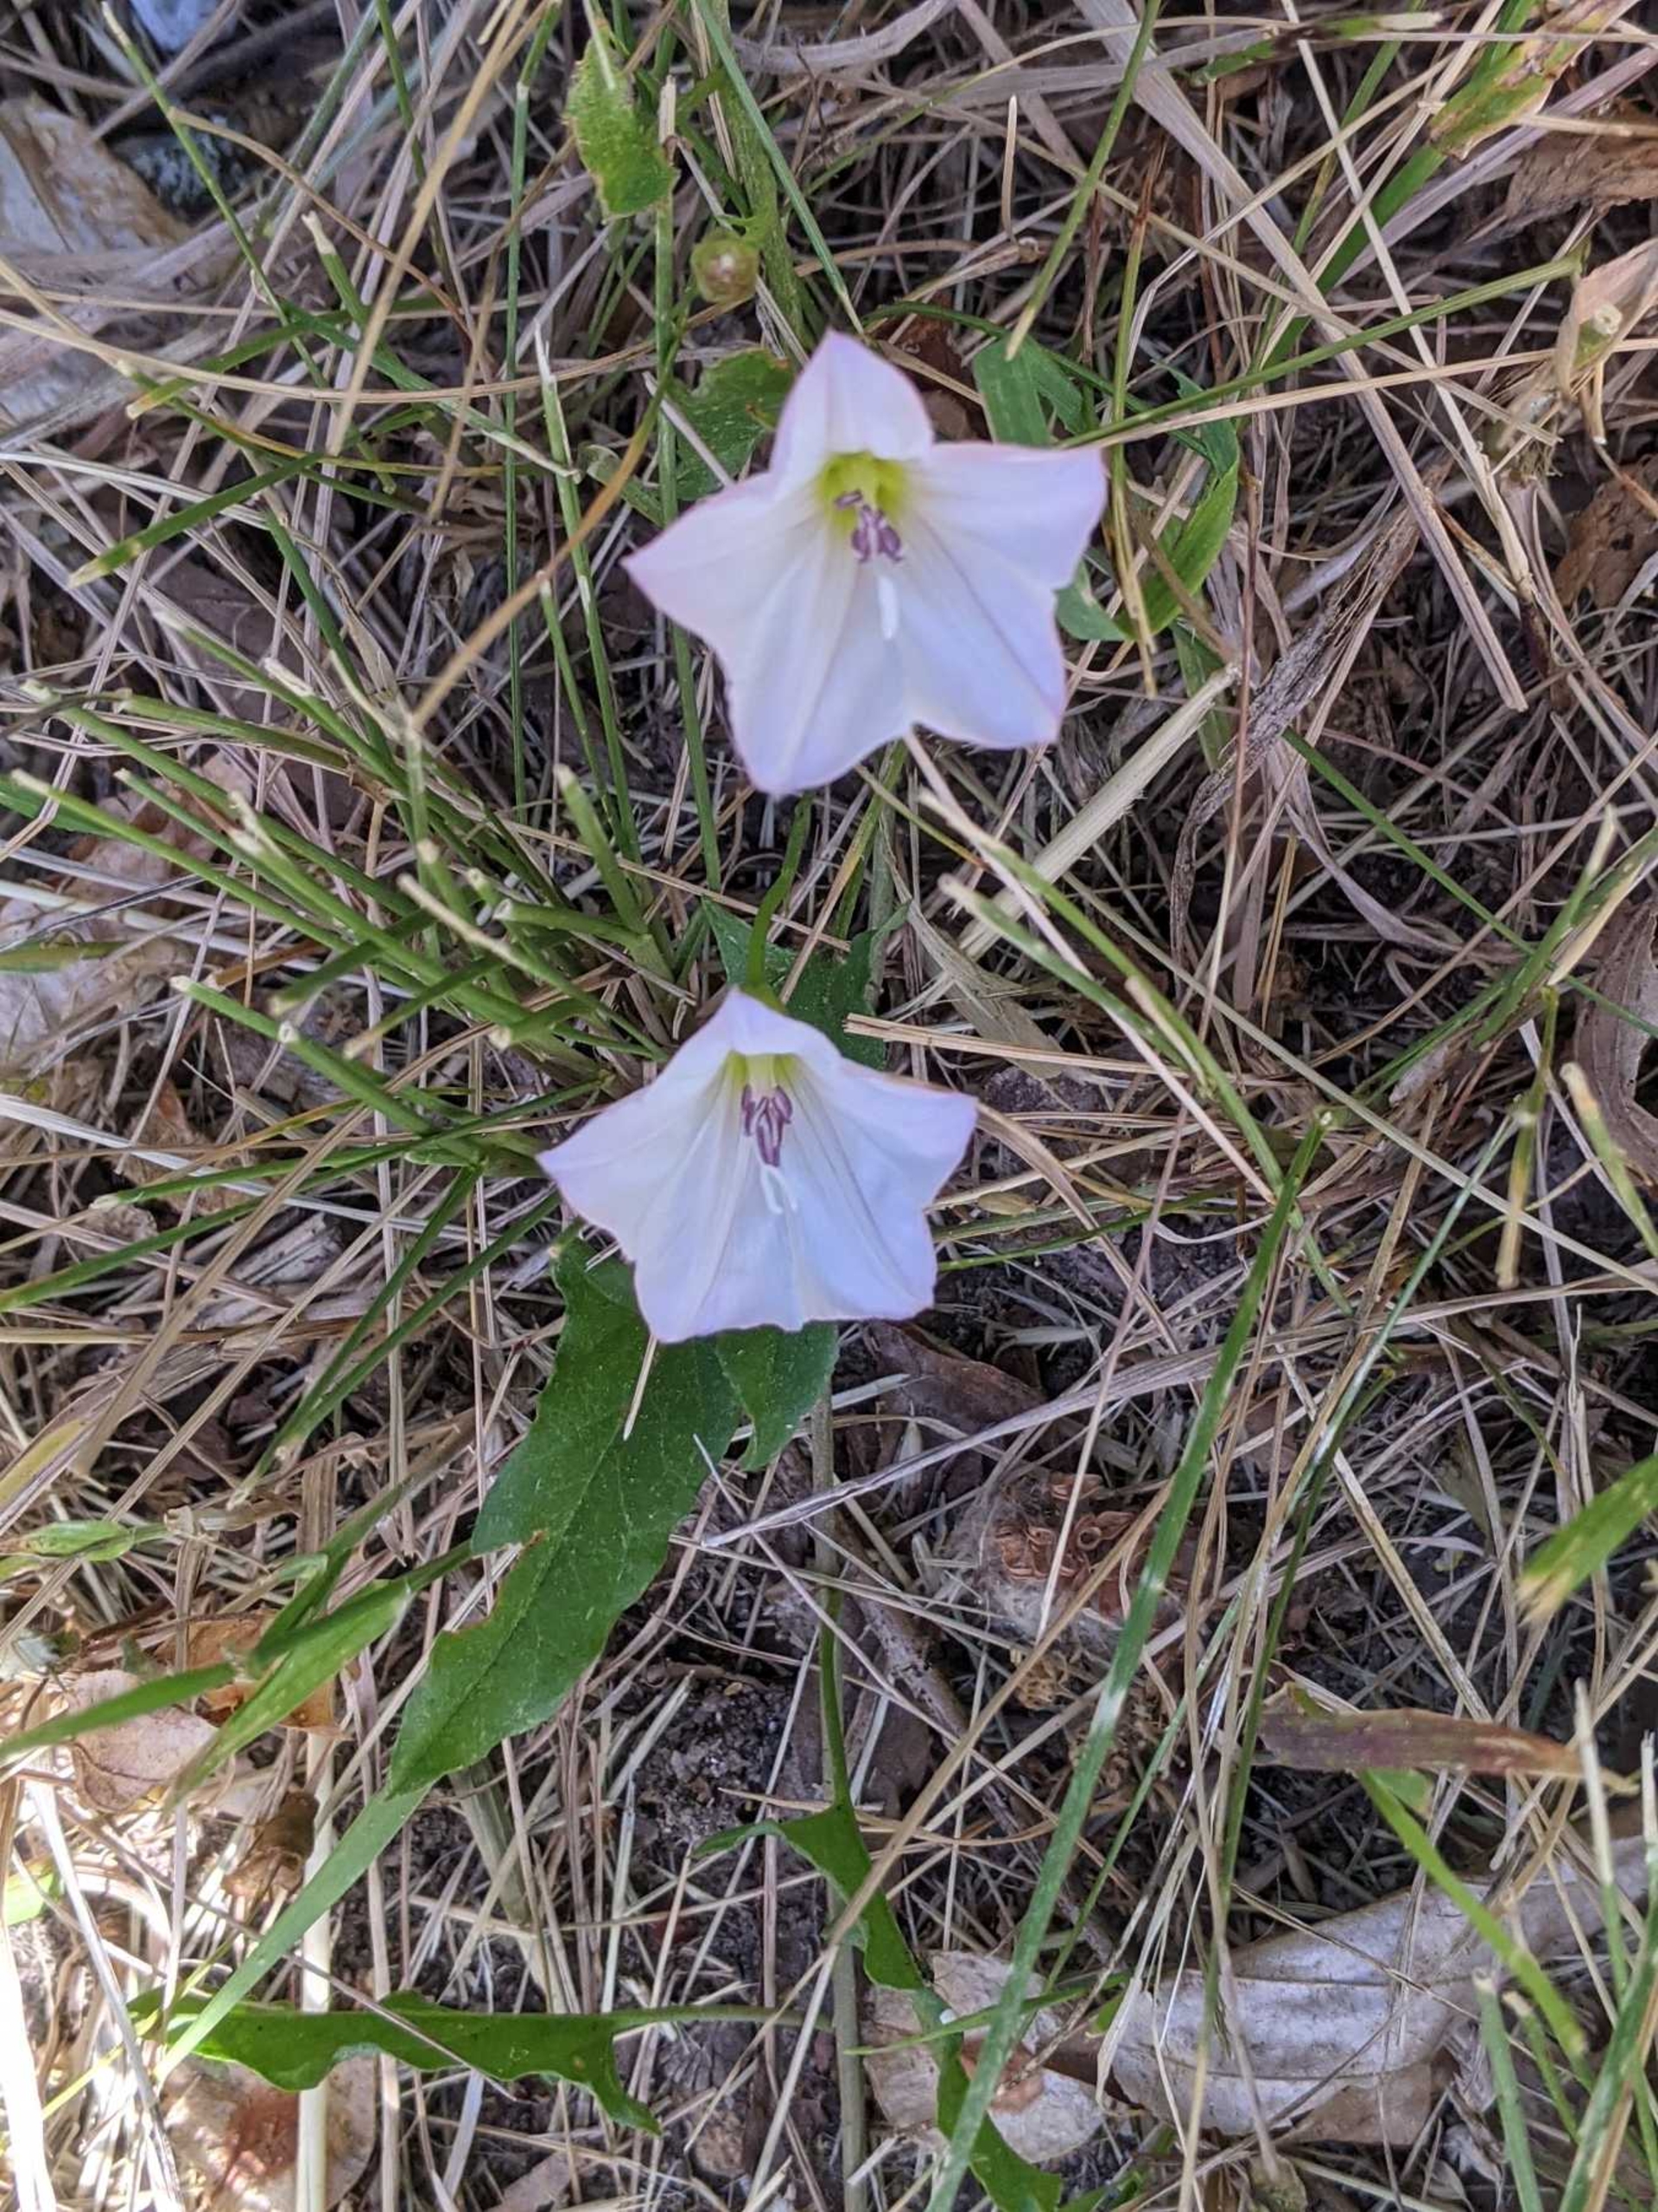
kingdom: Plantae
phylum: Tracheophyta
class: Magnoliopsida
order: Solanales
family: Convolvulaceae
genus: Convolvulus
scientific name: Convolvulus arvensis
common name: Ager-snerle
